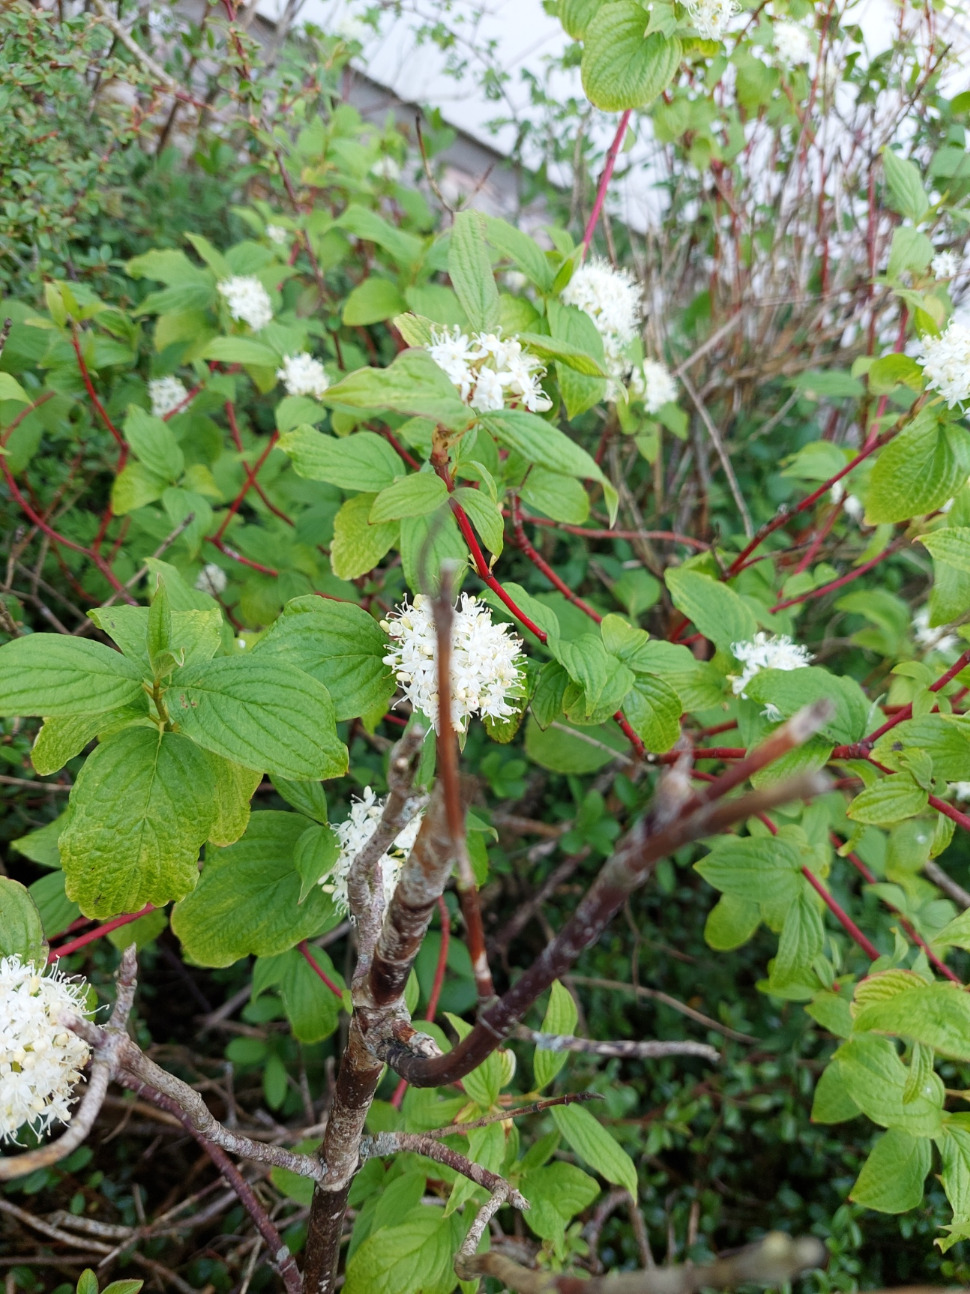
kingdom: Plantae
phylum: Tracheophyta
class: Magnoliopsida
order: Cornales
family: Cornaceae
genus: Cornus
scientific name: Cornus sanguinea
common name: Rød kornel
